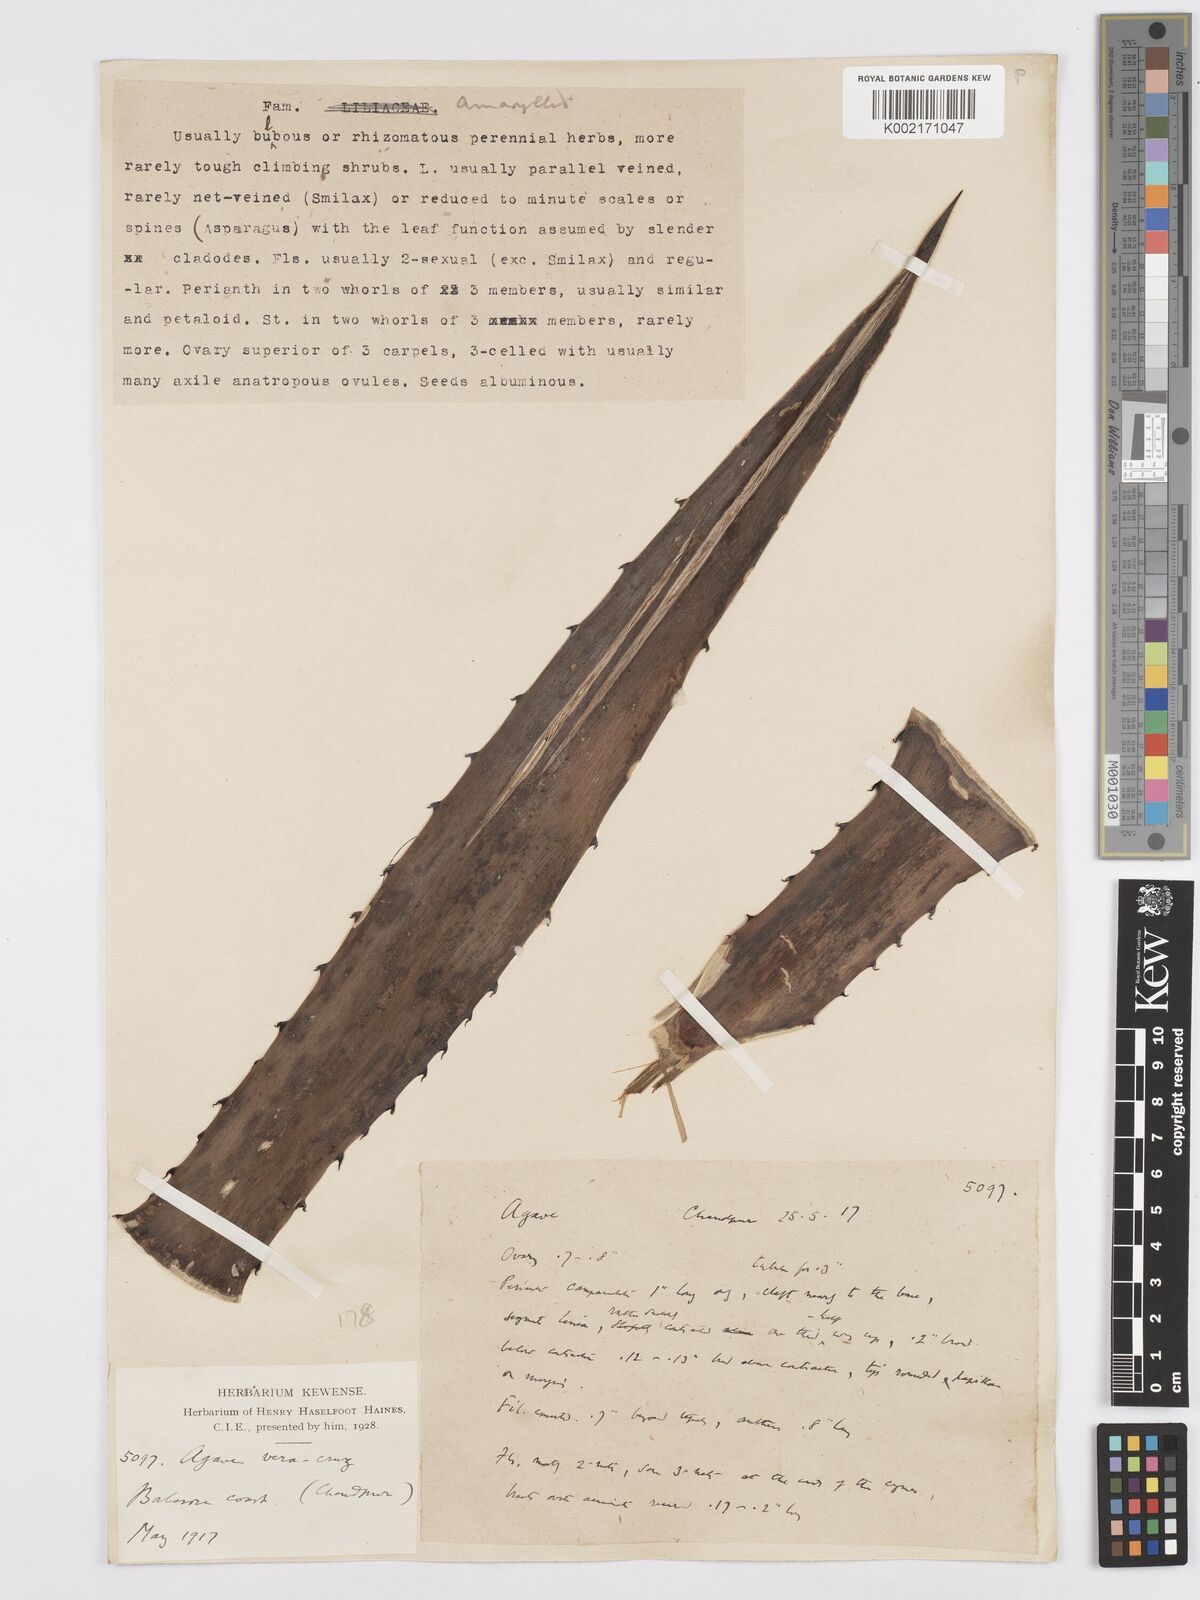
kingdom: Plantae
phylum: Tracheophyta
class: Liliopsida
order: Asparagales
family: Asparagaceae
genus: Agave
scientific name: Agave vera-cruz
